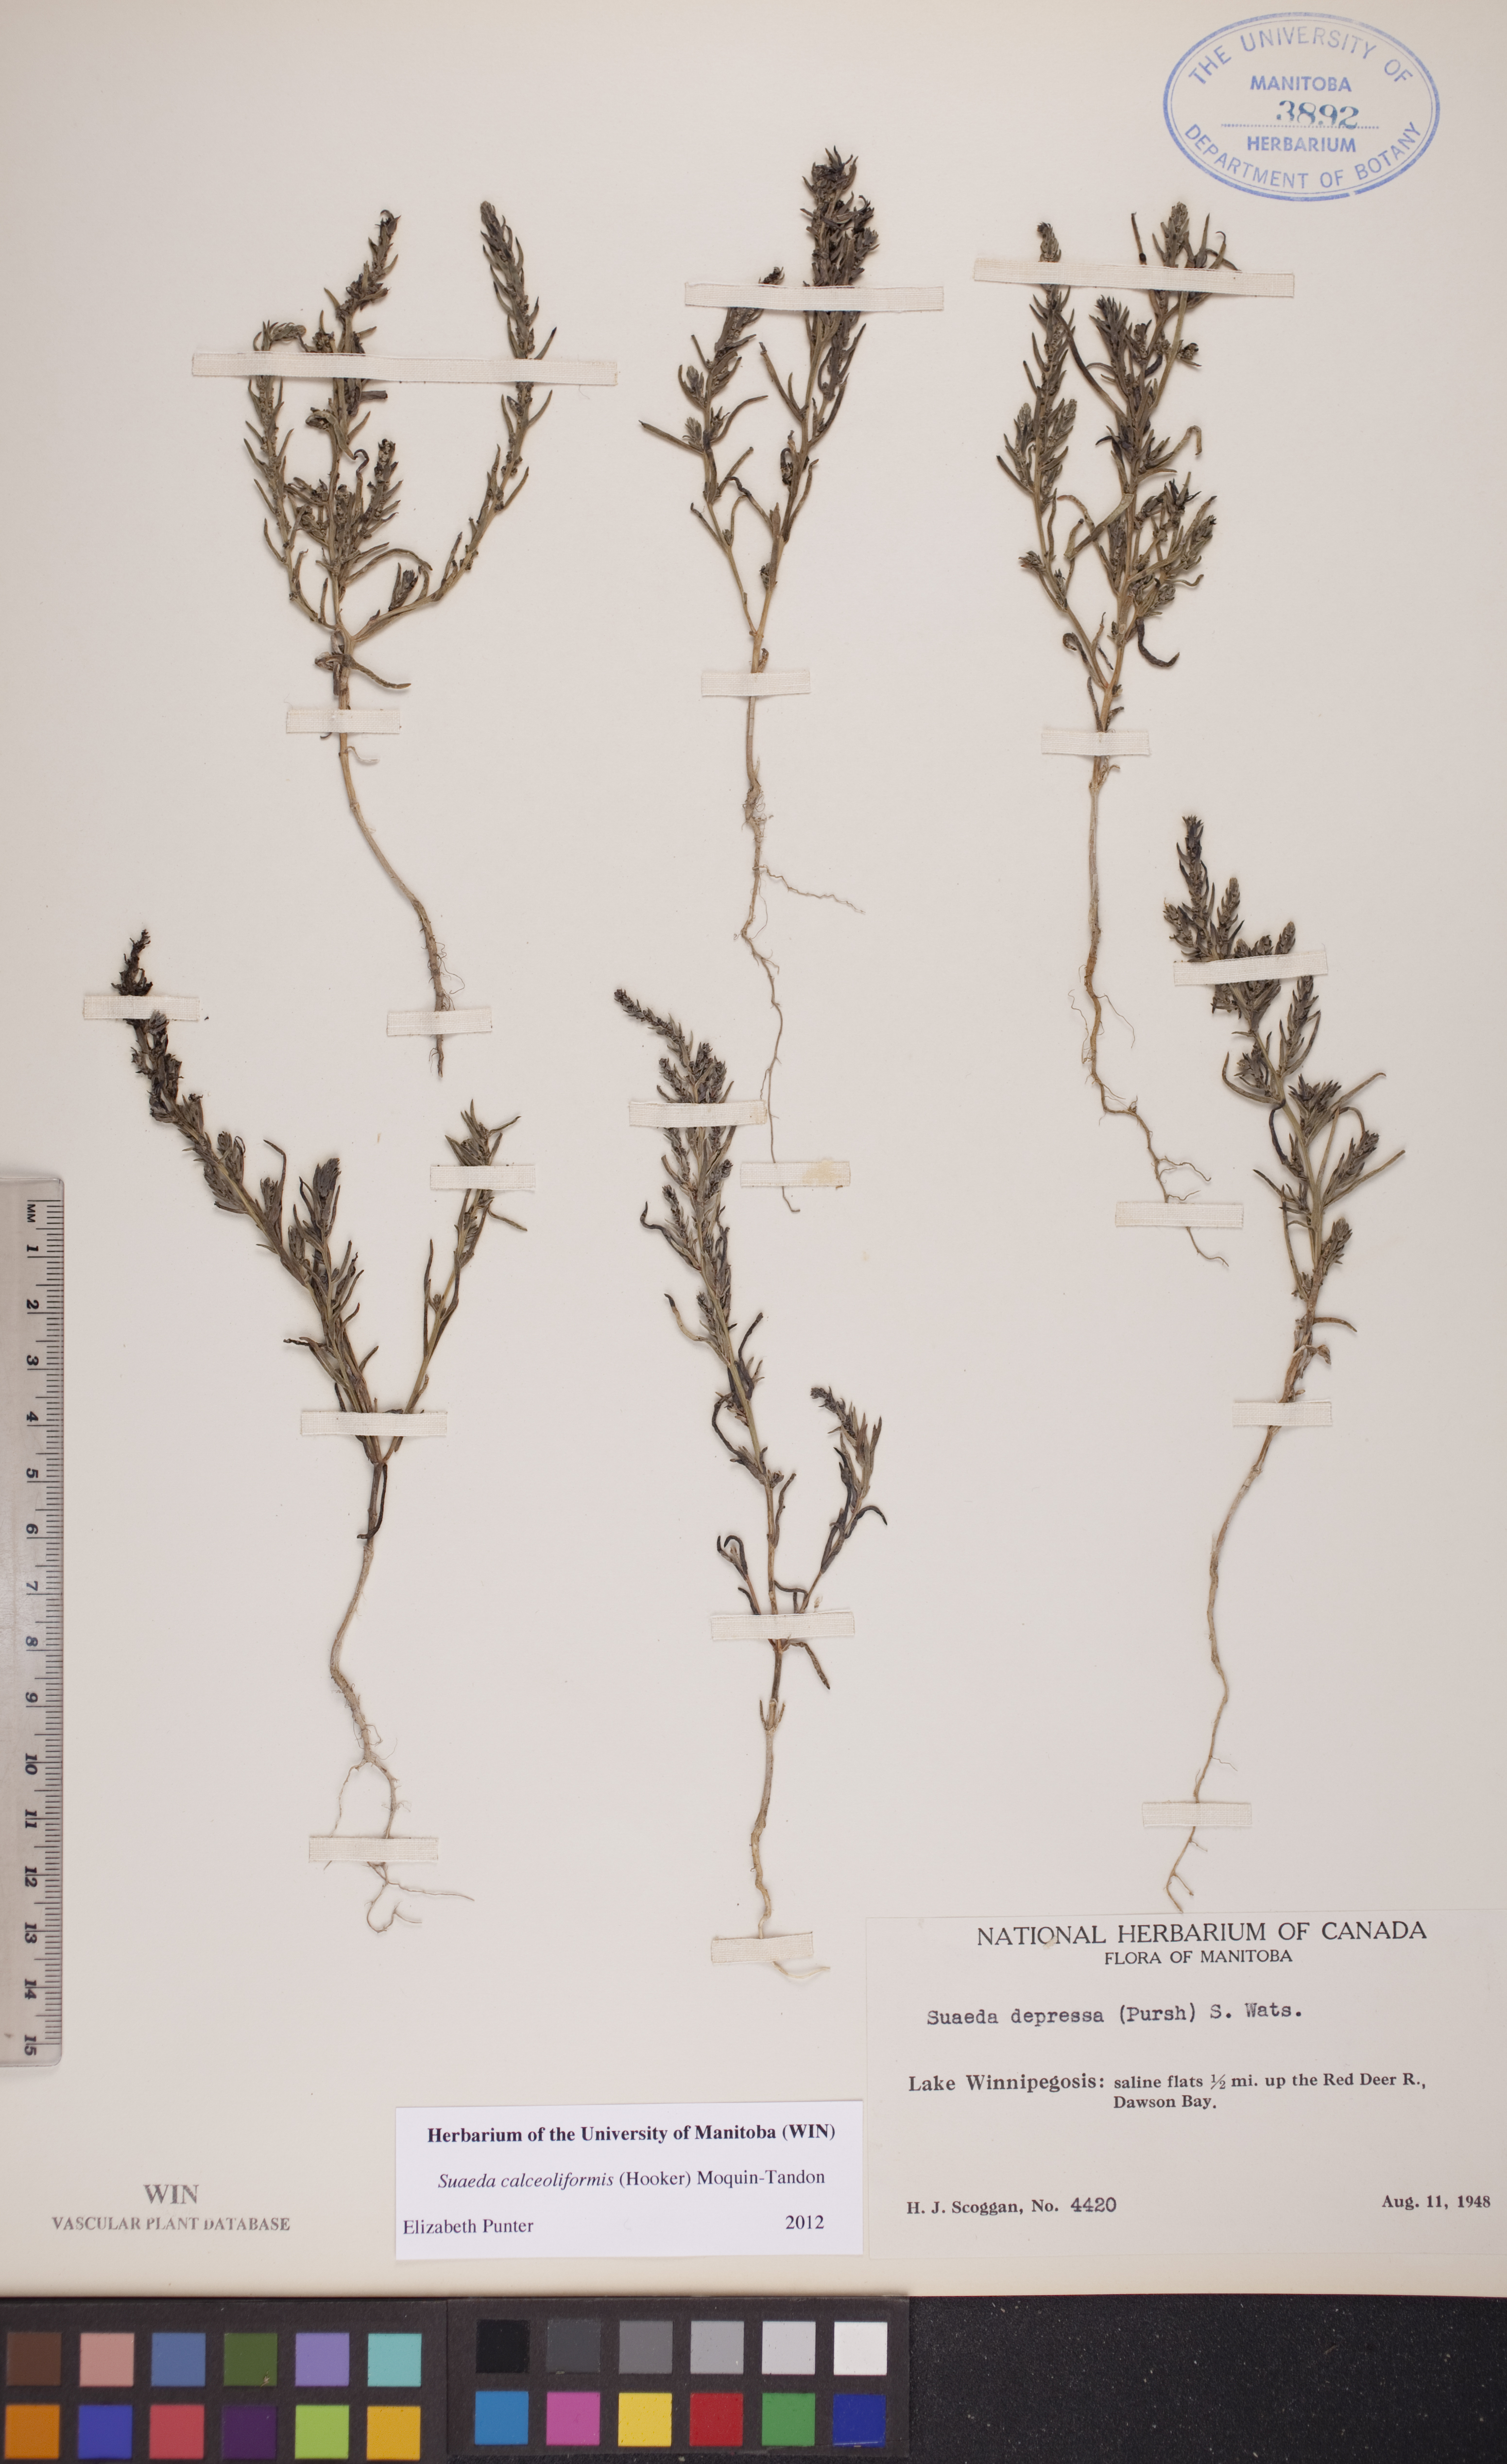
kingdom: Plantae
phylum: Tracheophyta
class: Magnoliopsida
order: Caryophyllales
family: Amaranthaceae
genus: Suaeda
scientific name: Suaeda calceoliformis
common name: Pursh's seepweed
